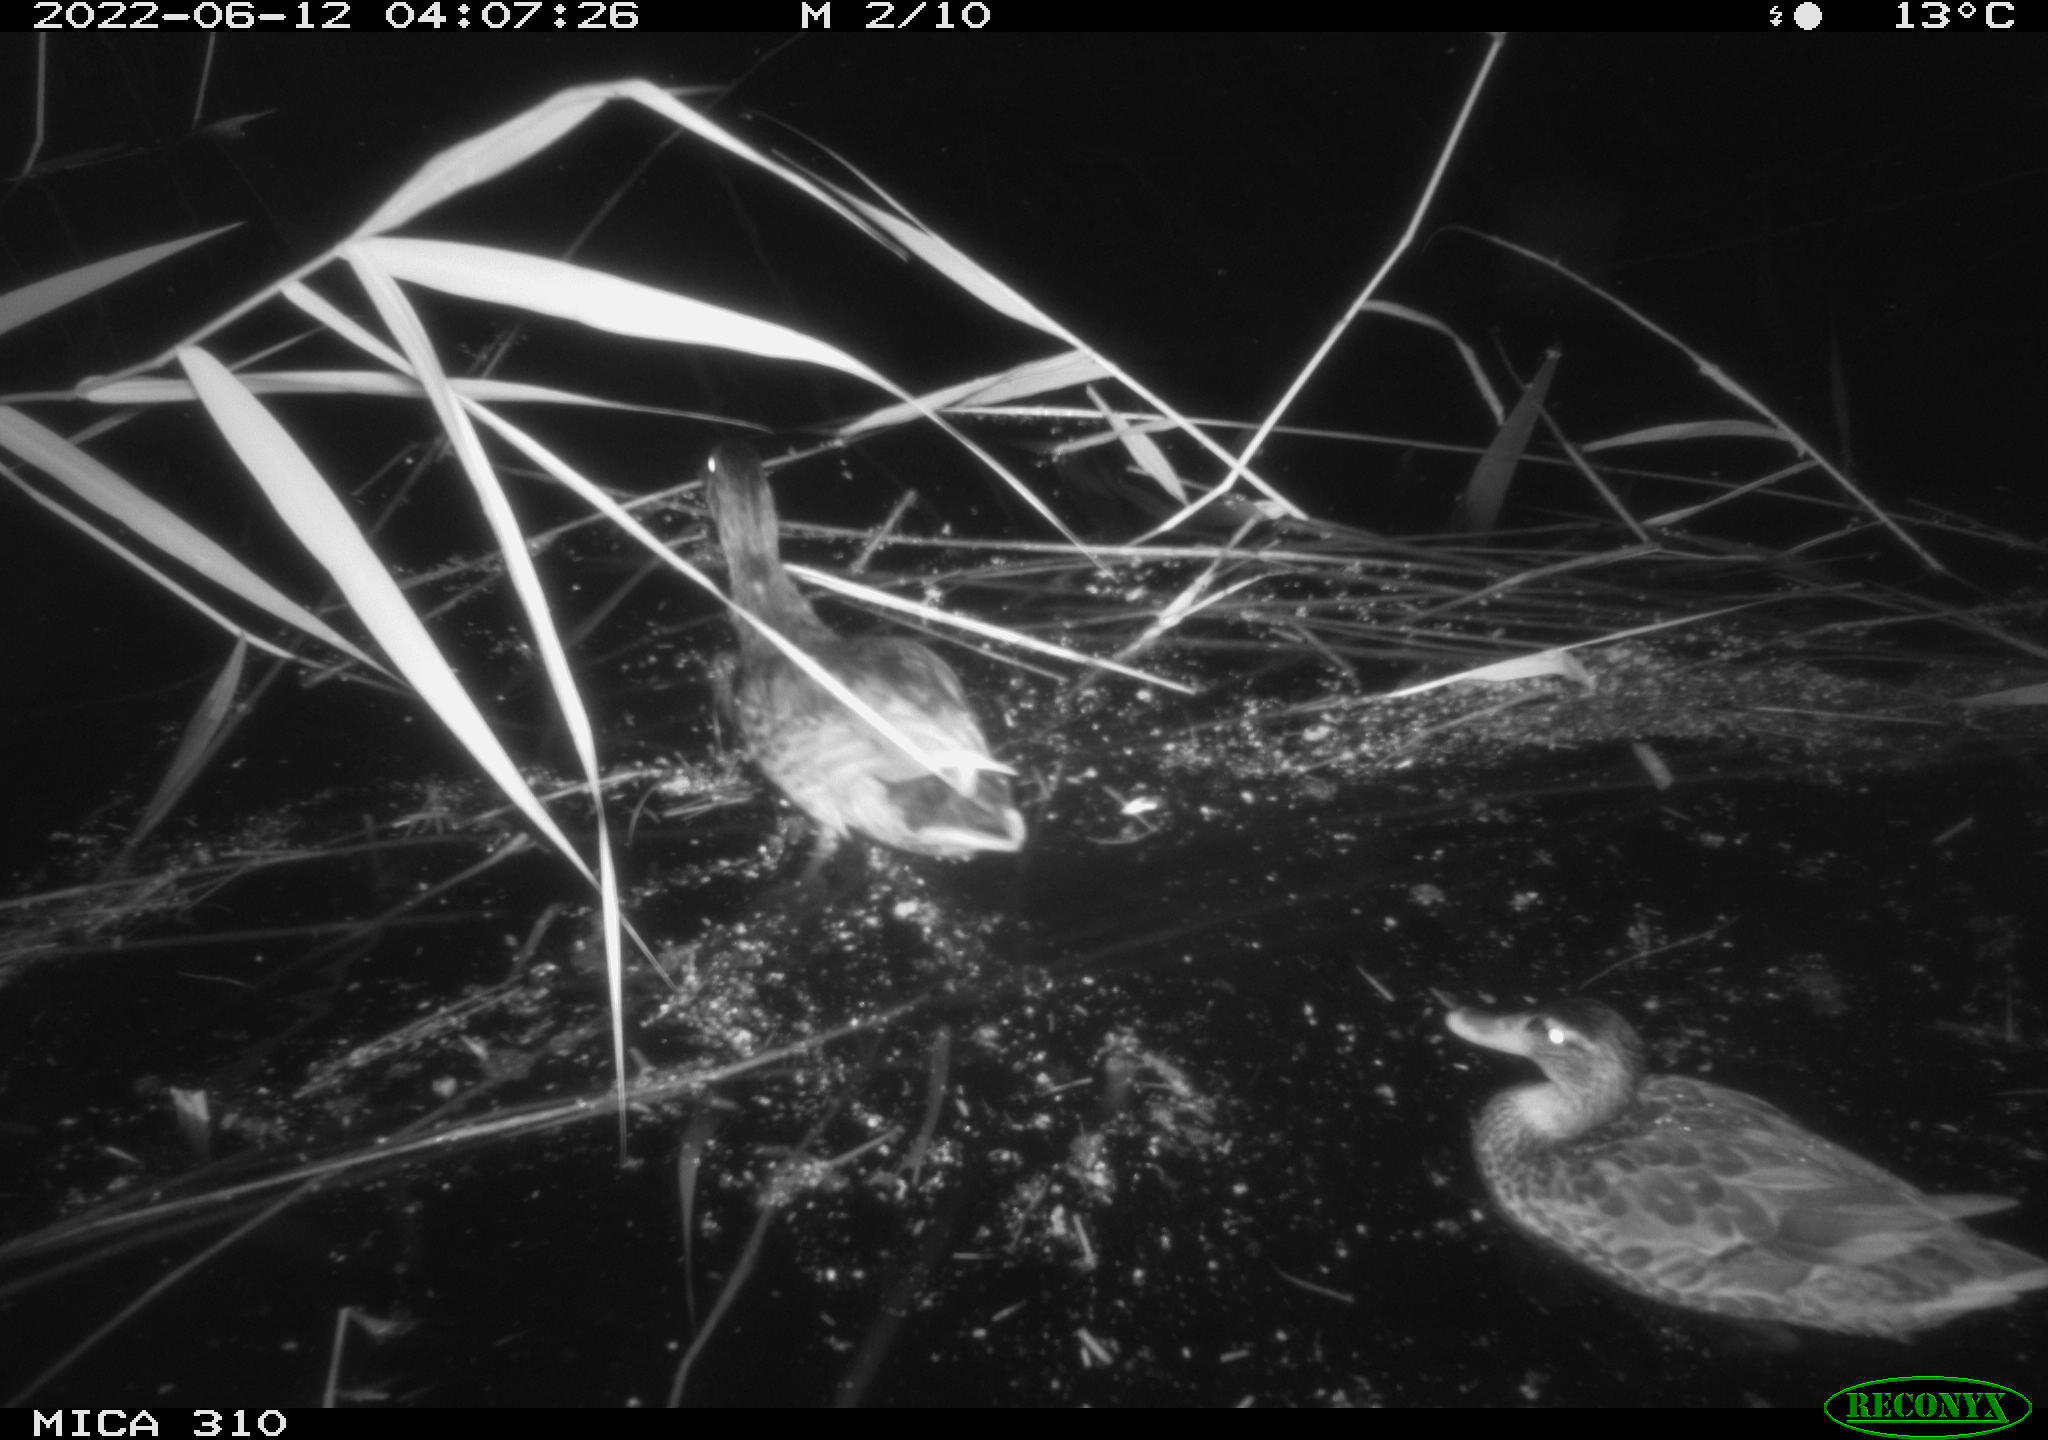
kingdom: Animalia
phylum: Chordata
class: Aves
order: Anseriformes
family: Anatidae
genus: Anas
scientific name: Anas platyrhynchos
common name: Mallard
